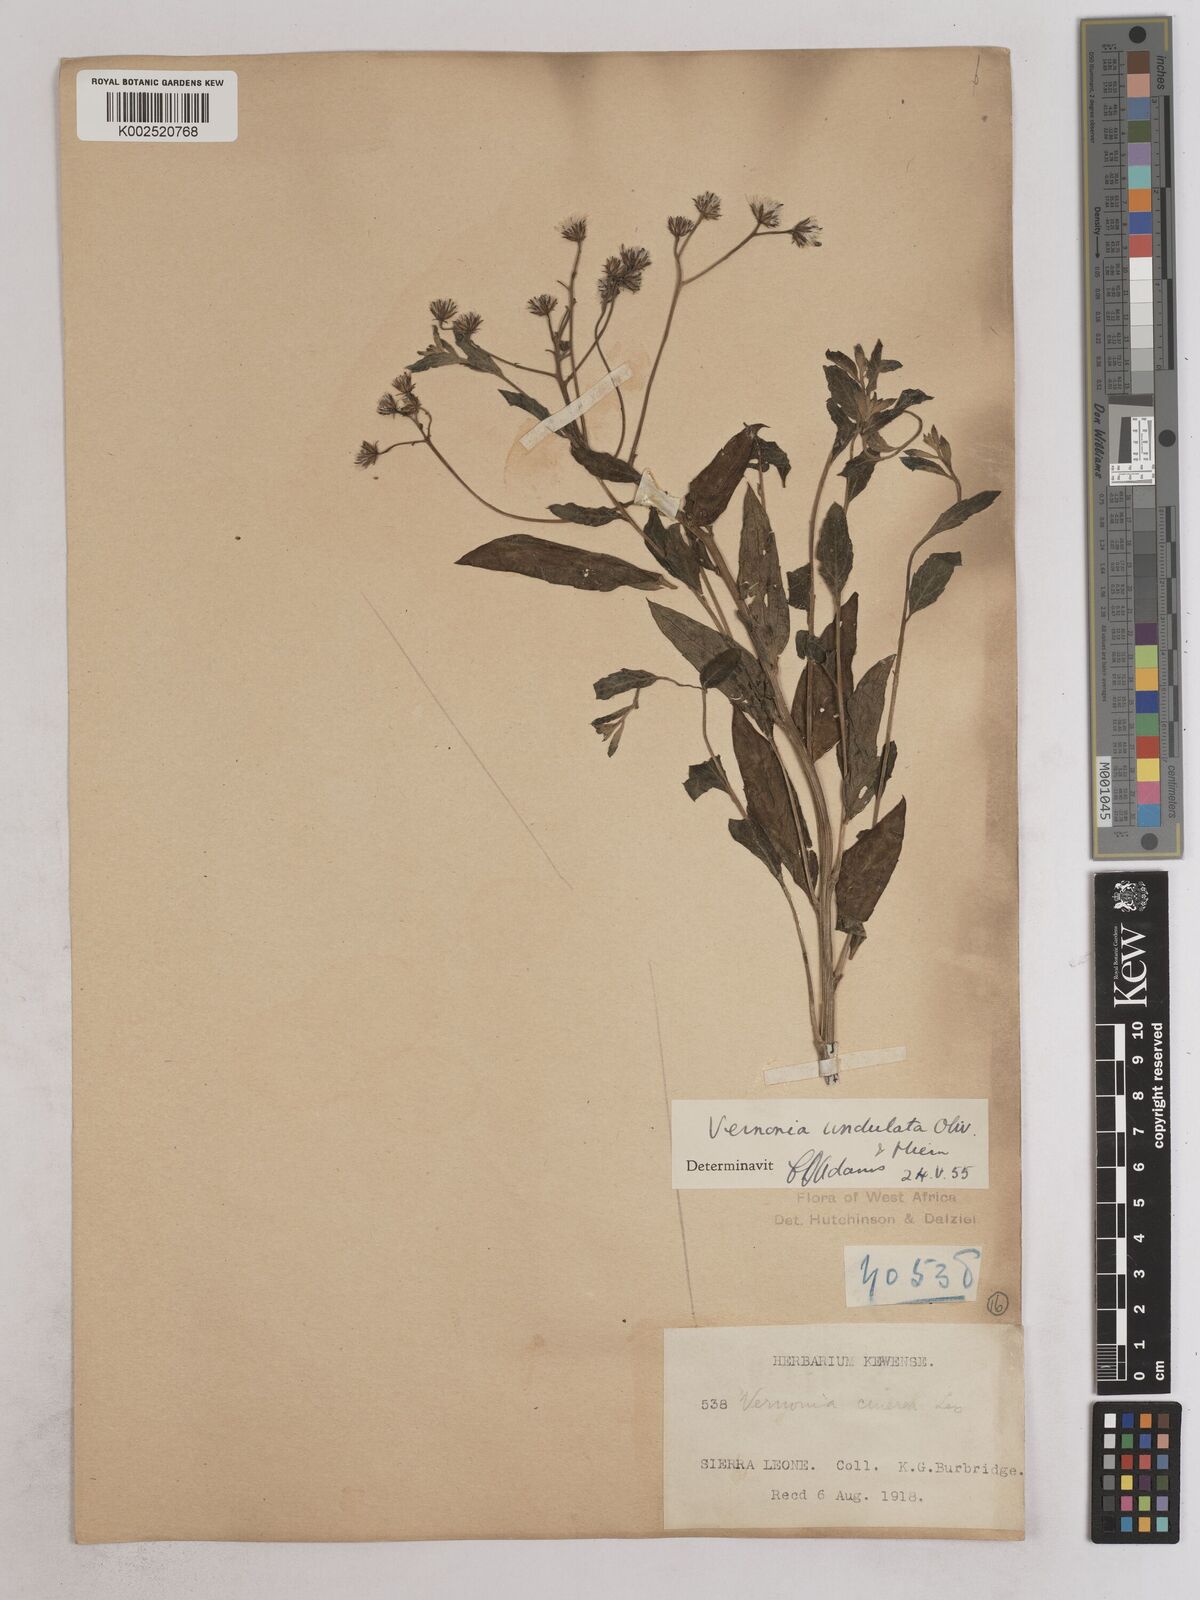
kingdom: Plantae
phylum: Tracheophyta
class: Magnoliopsida
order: Asterales
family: Asteraceae
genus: Vernonia
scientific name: Vernonia golungensis
